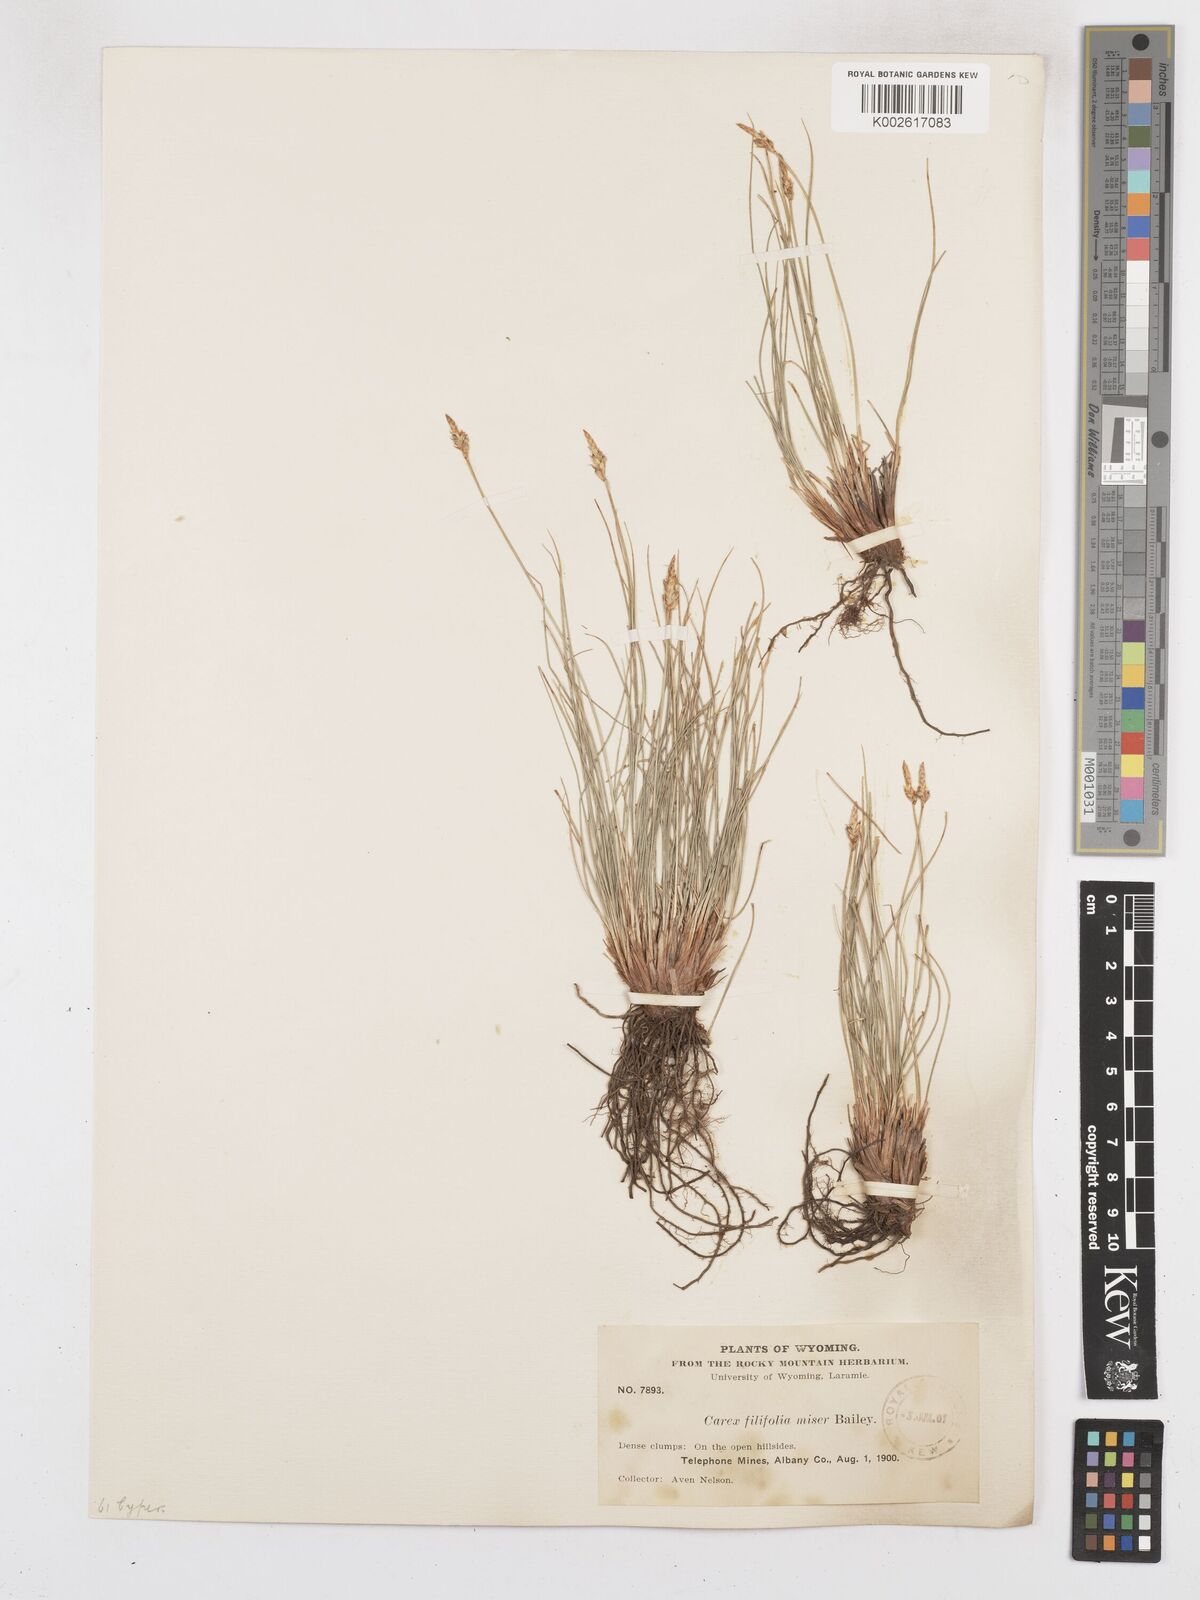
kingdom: Plantae
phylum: Tracheophyta
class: Liliopsida
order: Poales
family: Cyperaceae
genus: Carex
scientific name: Carex elynoides
